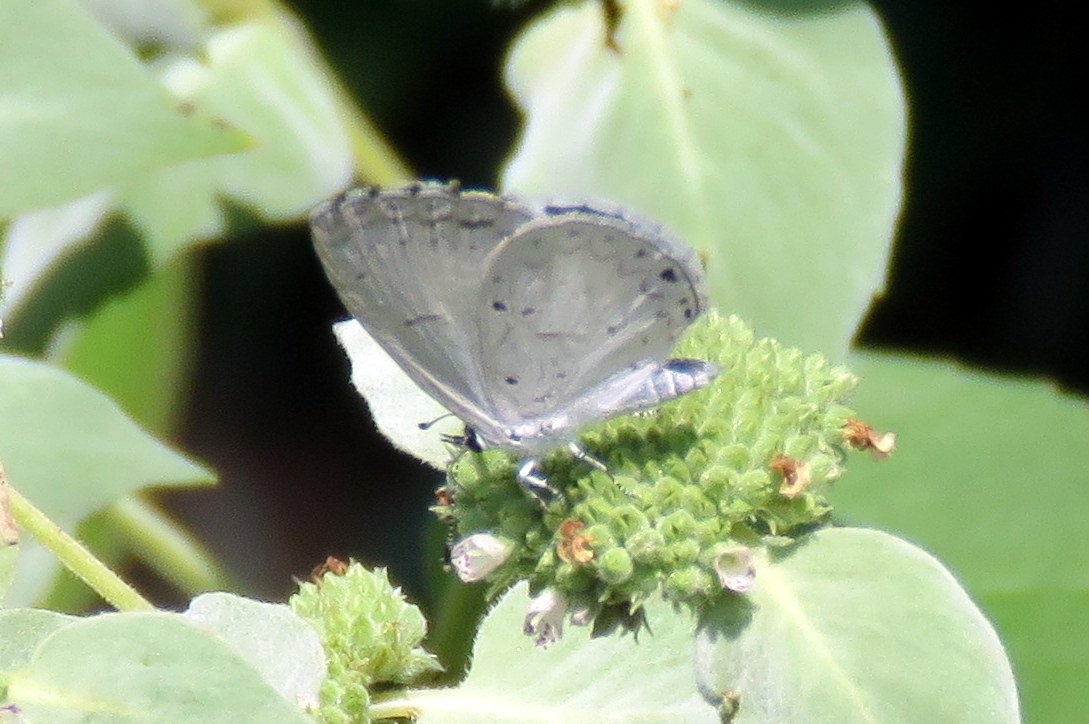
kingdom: Animalia
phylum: Arthropoda
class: Insecta
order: Lepidoptera
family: Lycaenidae
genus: Cyaniris
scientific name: Cyaniris neglecta
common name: Summer Azure
